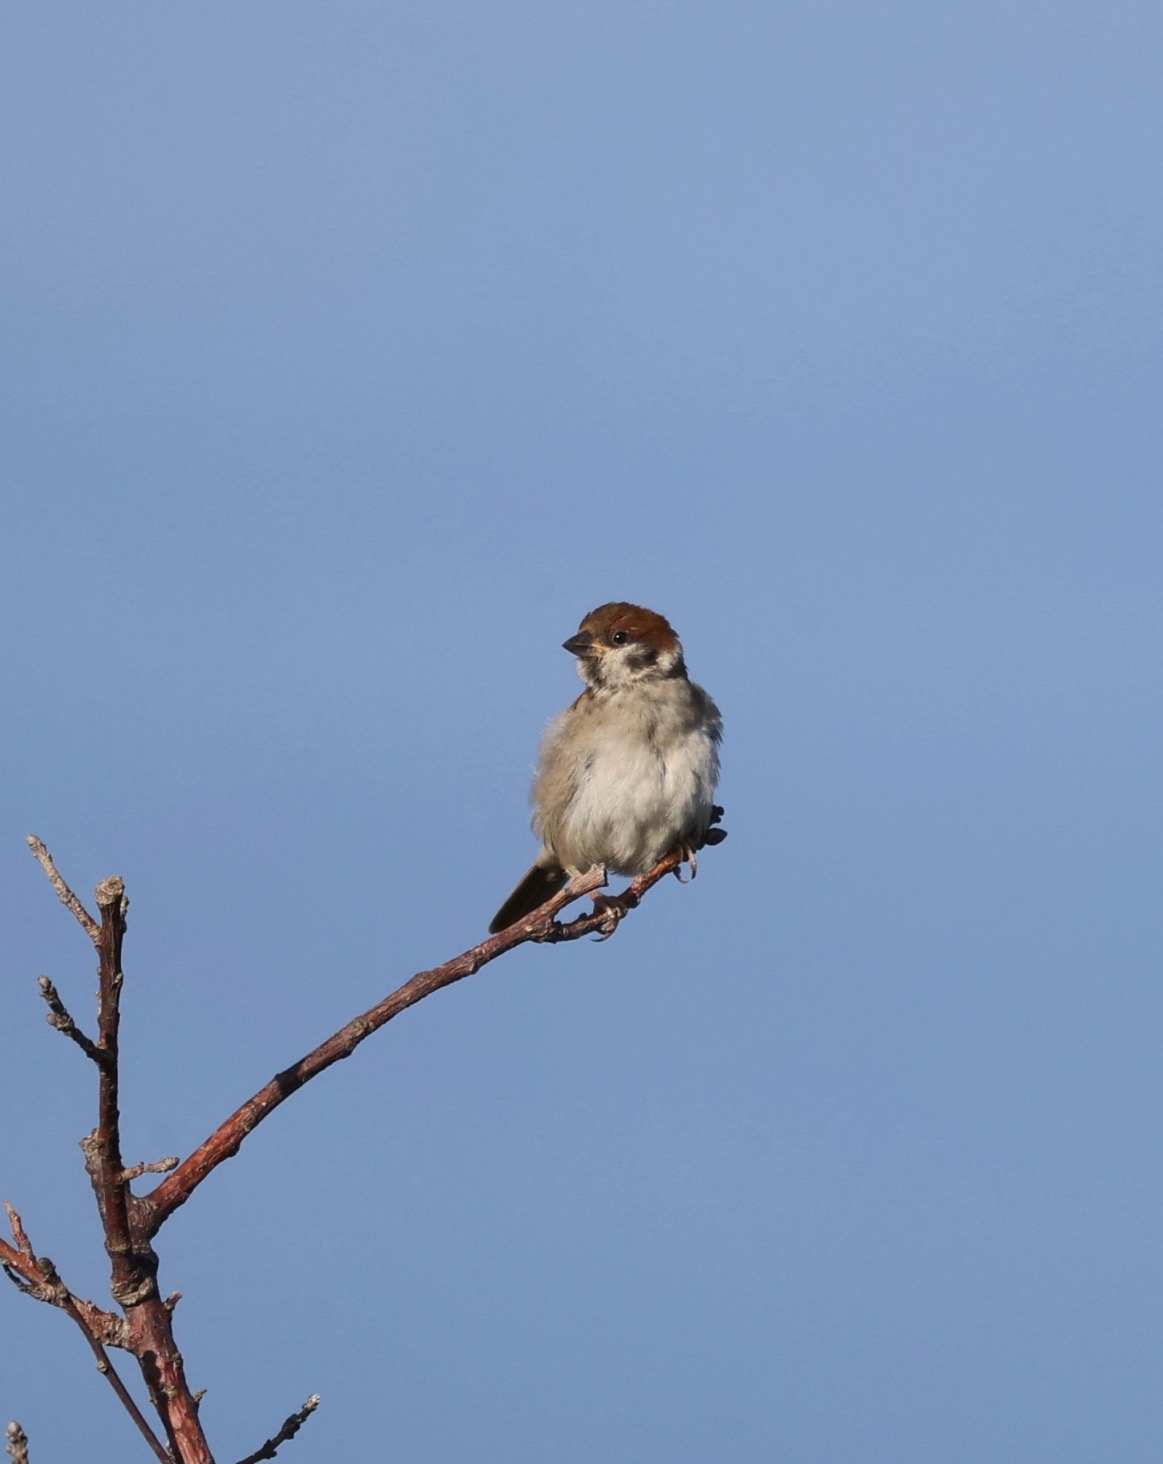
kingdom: Animalia
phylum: Chordata
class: Aves
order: Passeriformes
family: Passeridae
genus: Passer
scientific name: Passer montanus
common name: Skovspurv
